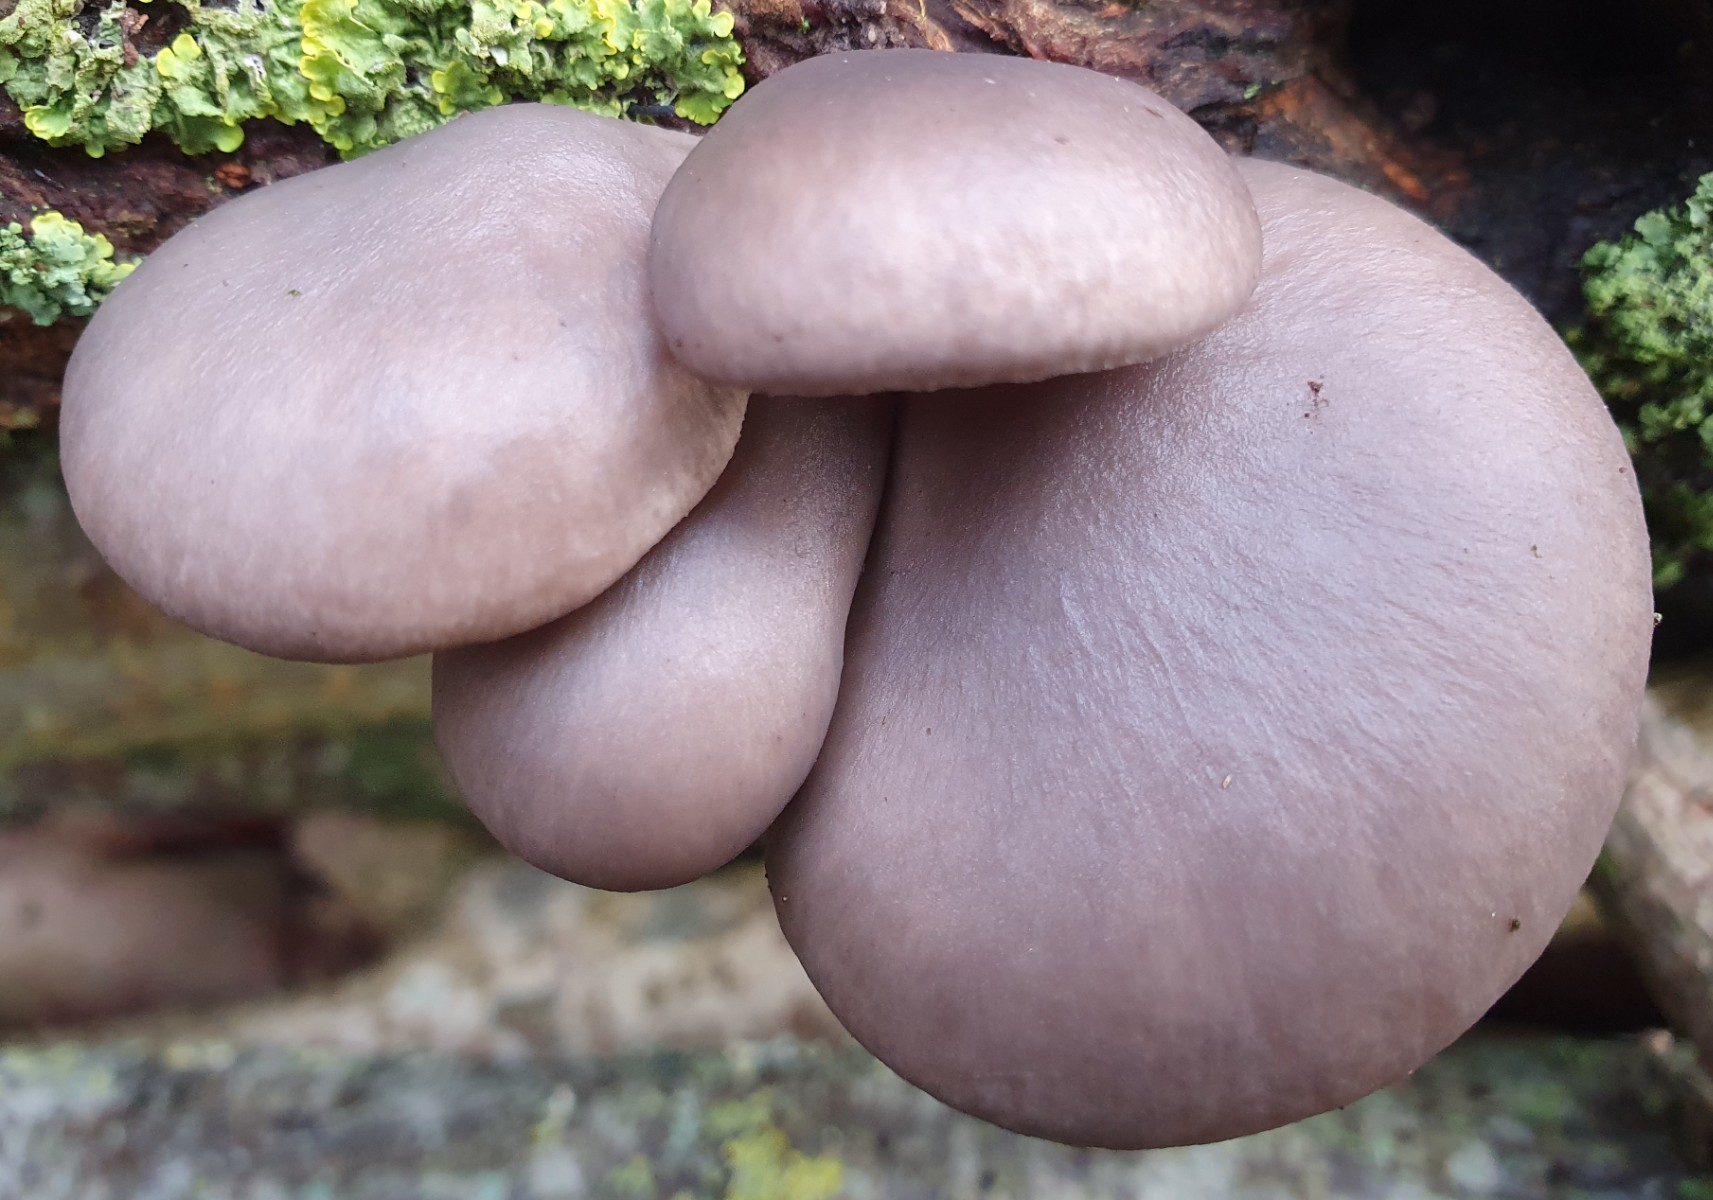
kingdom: Fungi
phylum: Basidiomycota
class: Agaricomycetes
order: Agaricales
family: Pleurotaceae
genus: Pleurotus
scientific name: Pleurotus ostreatus
